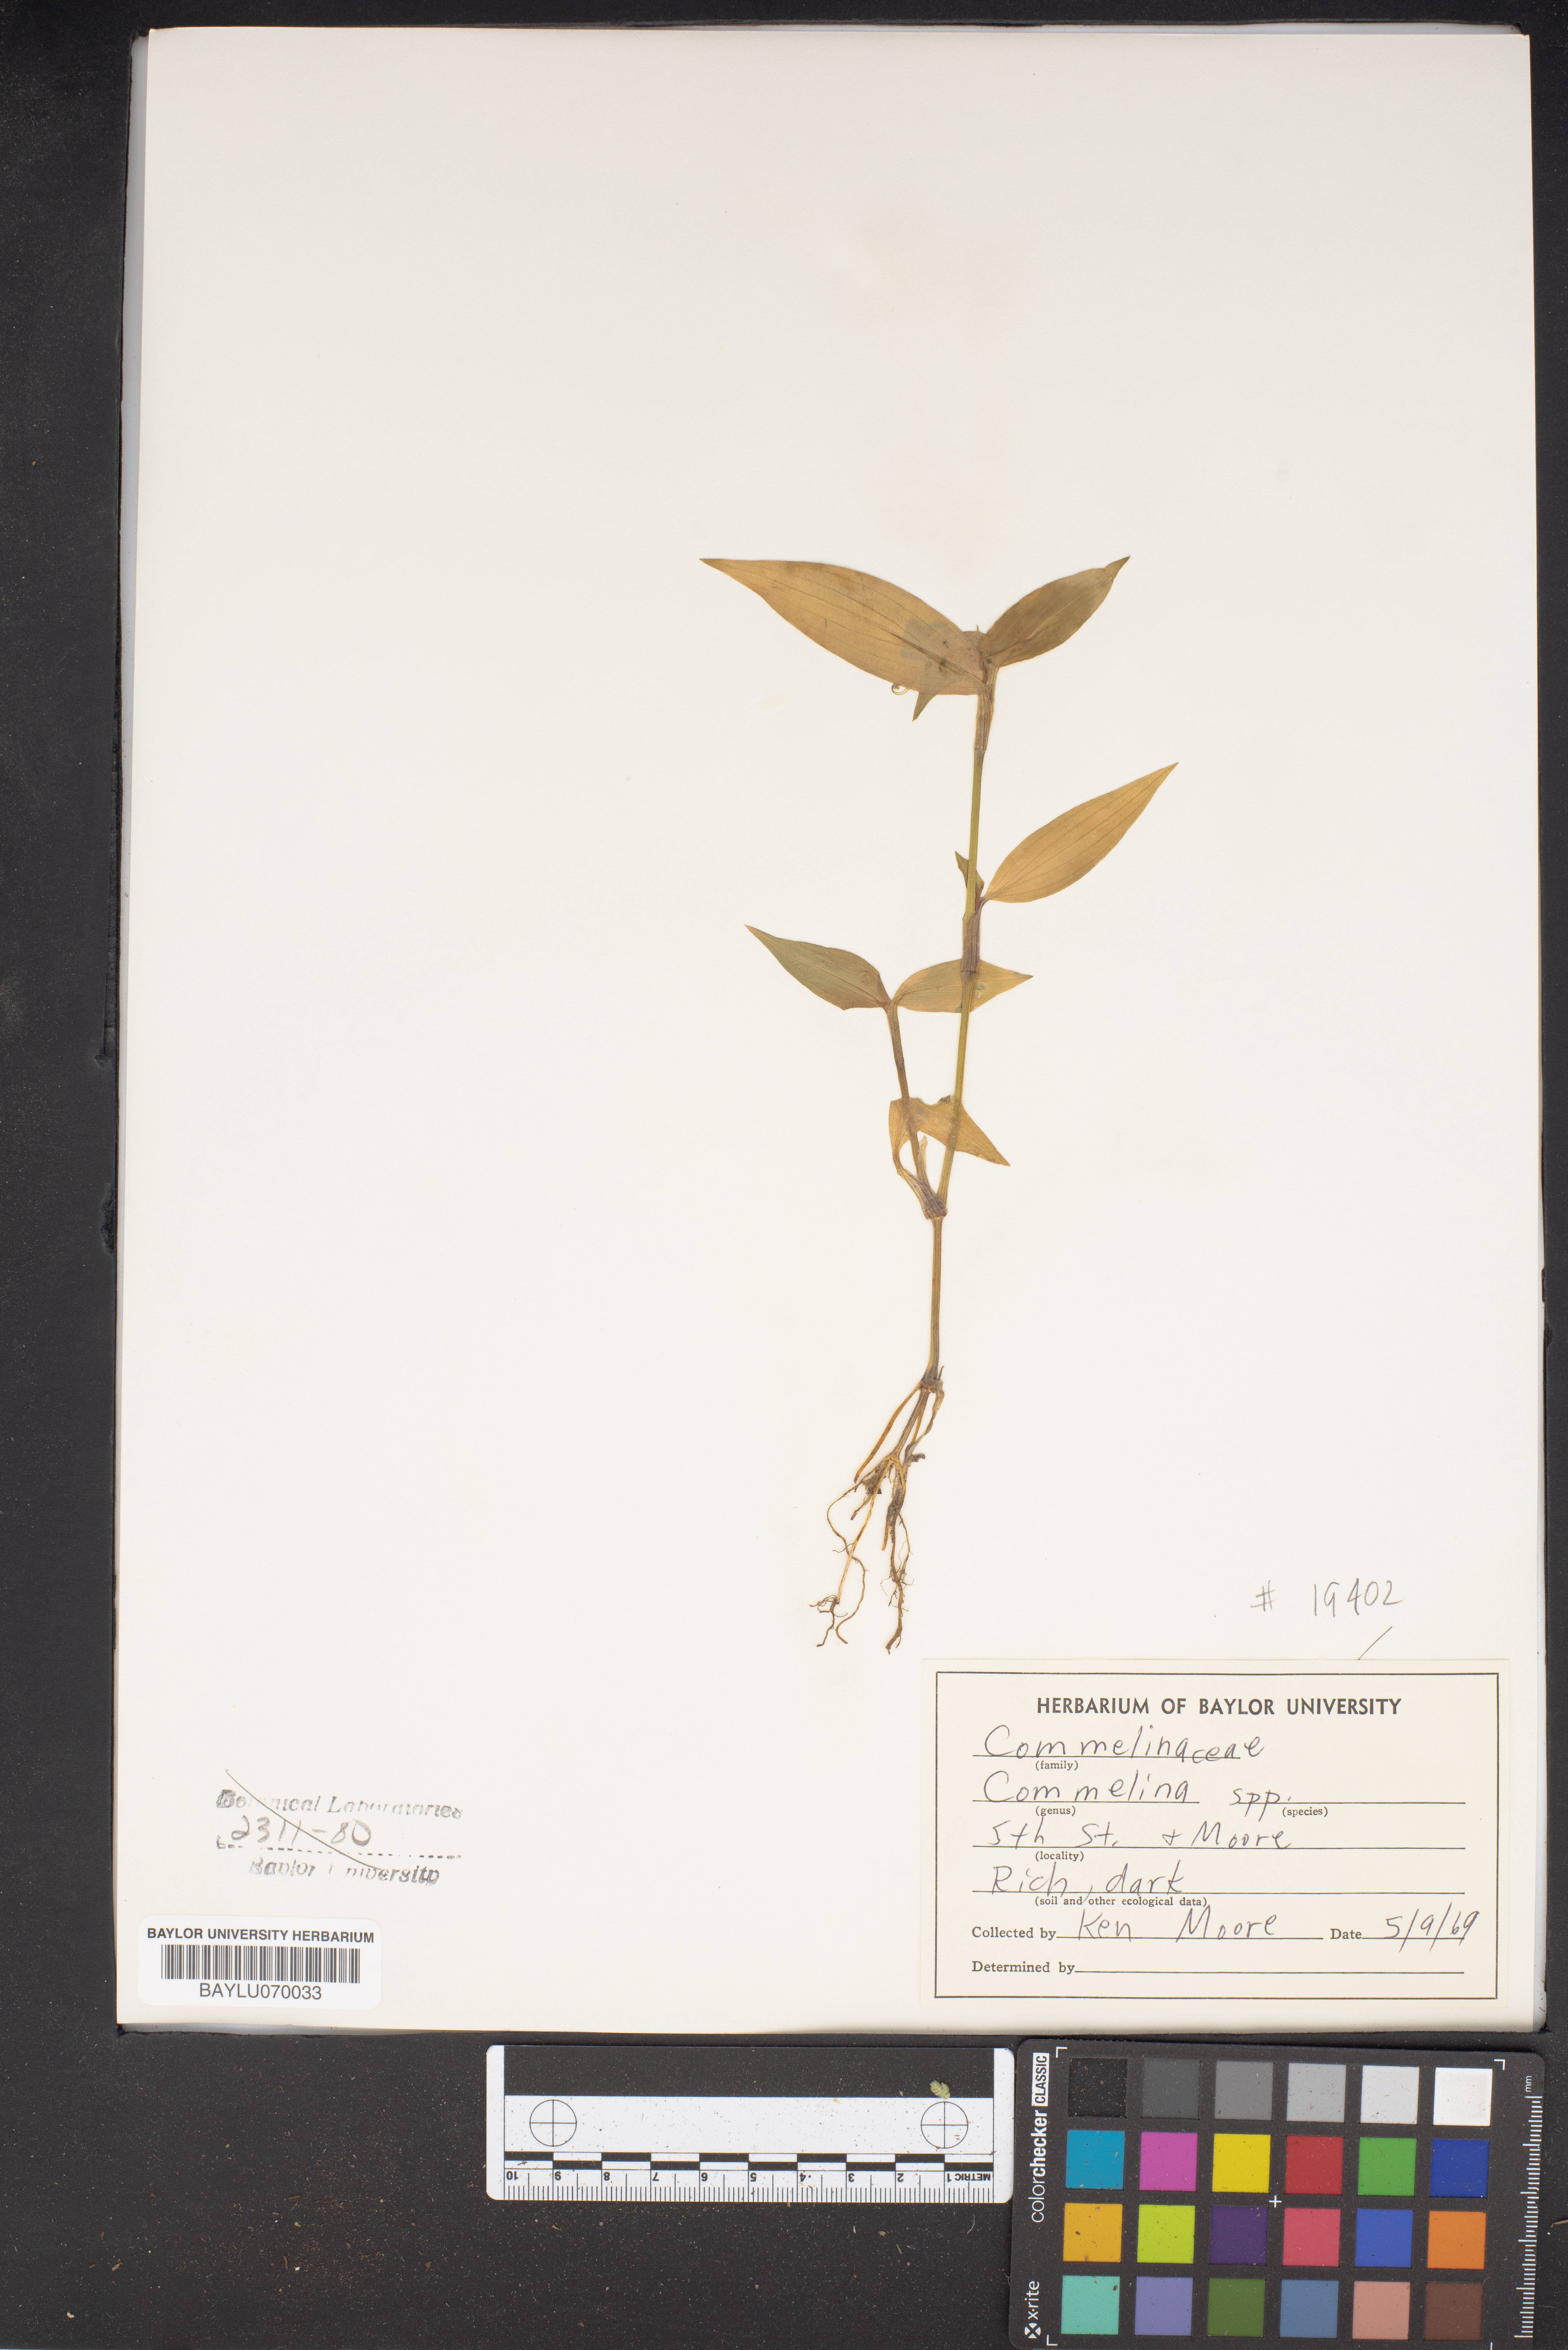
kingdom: Plantae
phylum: Tracheophyta
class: Liliopsida
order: Commelinales
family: Commelinaceae
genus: Commelina
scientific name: Commelina
